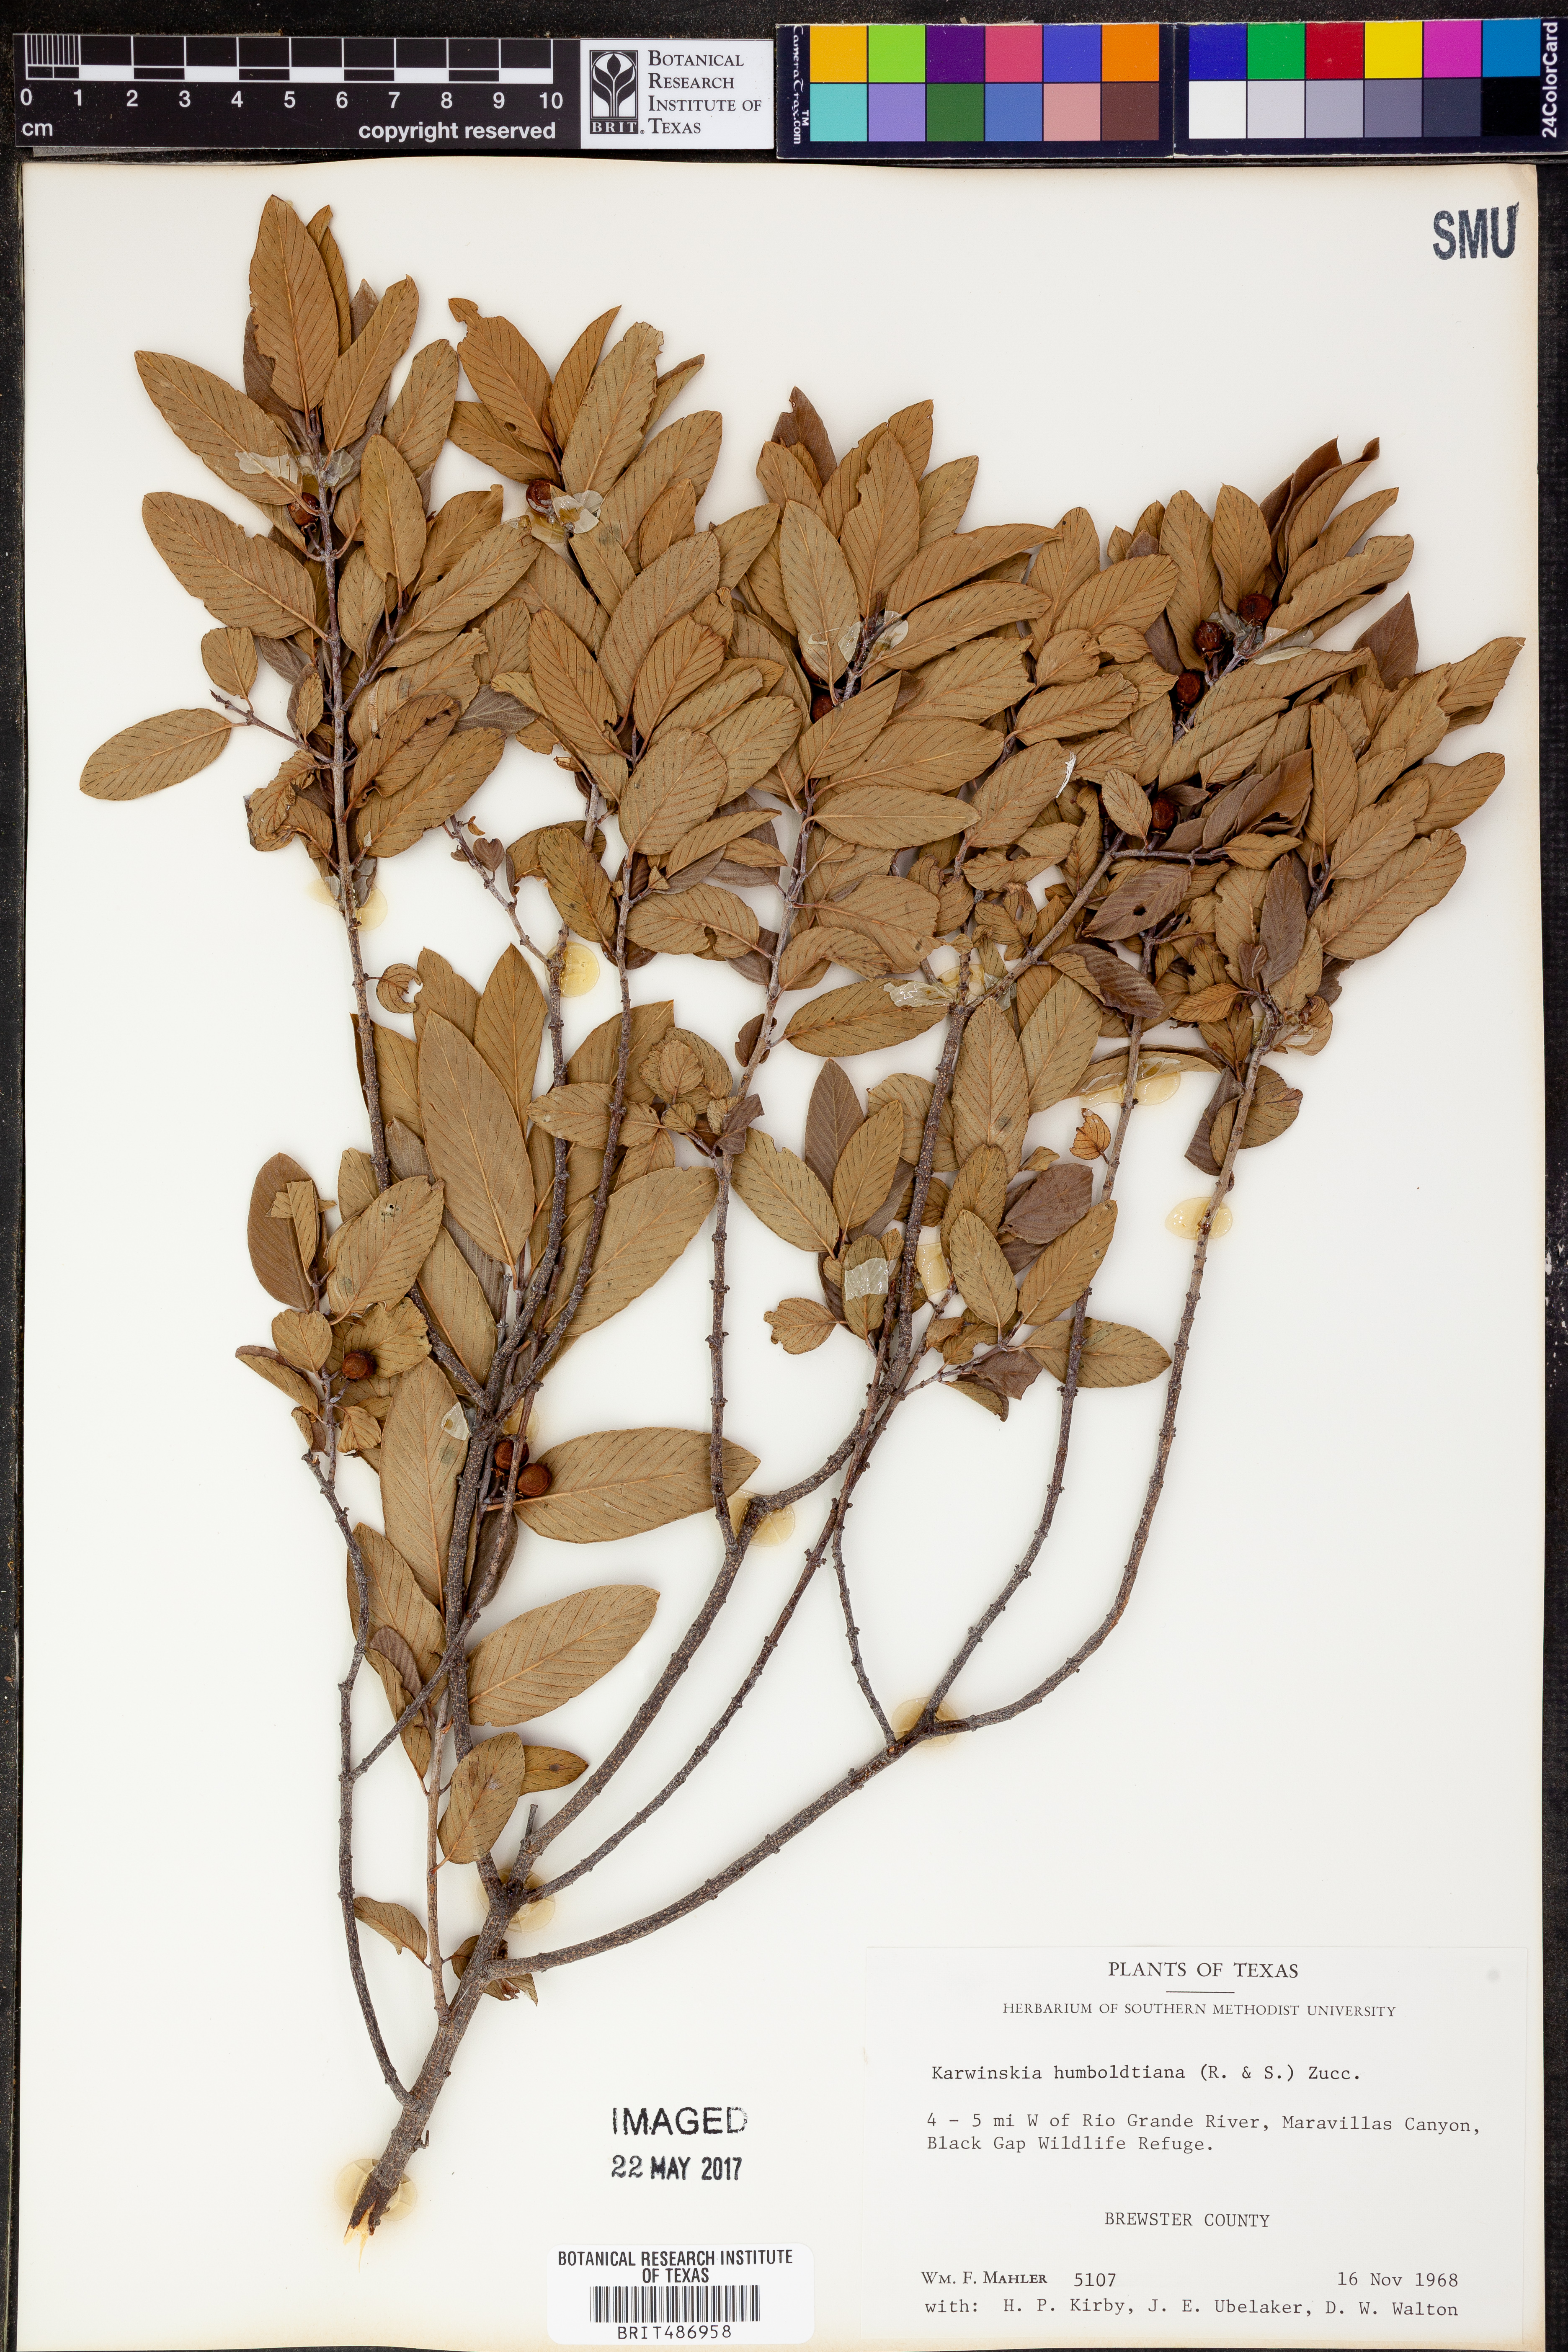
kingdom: Plantae
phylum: Tracheophyta
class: Magnoliopsida
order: Rosales
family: Rhamnaceae
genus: Karwinskia
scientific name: Karwinskia humboldtiana
